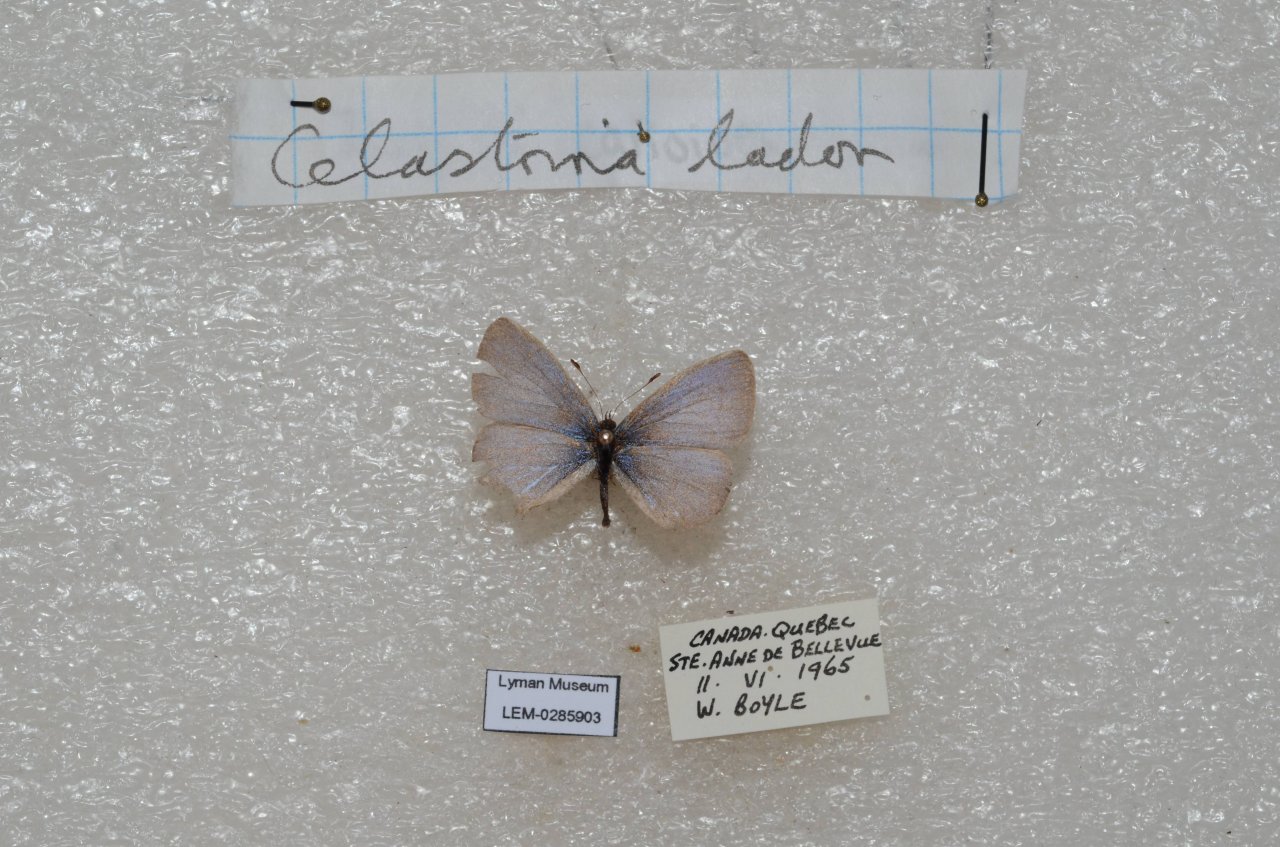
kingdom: Animalia
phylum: Arthropoda
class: Insecta
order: Lepidoptera
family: Lycaenidae
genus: Celastrina
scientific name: Celastrina lucia
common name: Northern Spring Azure
